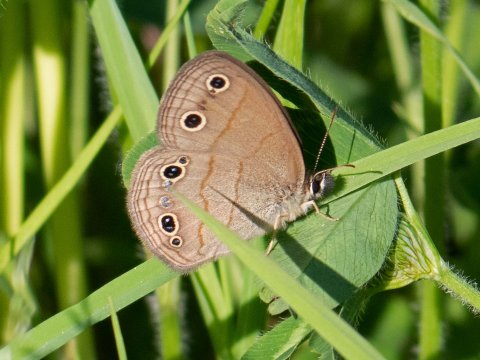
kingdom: Animalia
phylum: Arthropoda
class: Insecta
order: Lepidoptera
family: Nymphalidae
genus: Euptychia
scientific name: Euptychia cymela
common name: Little Wood Satyr
